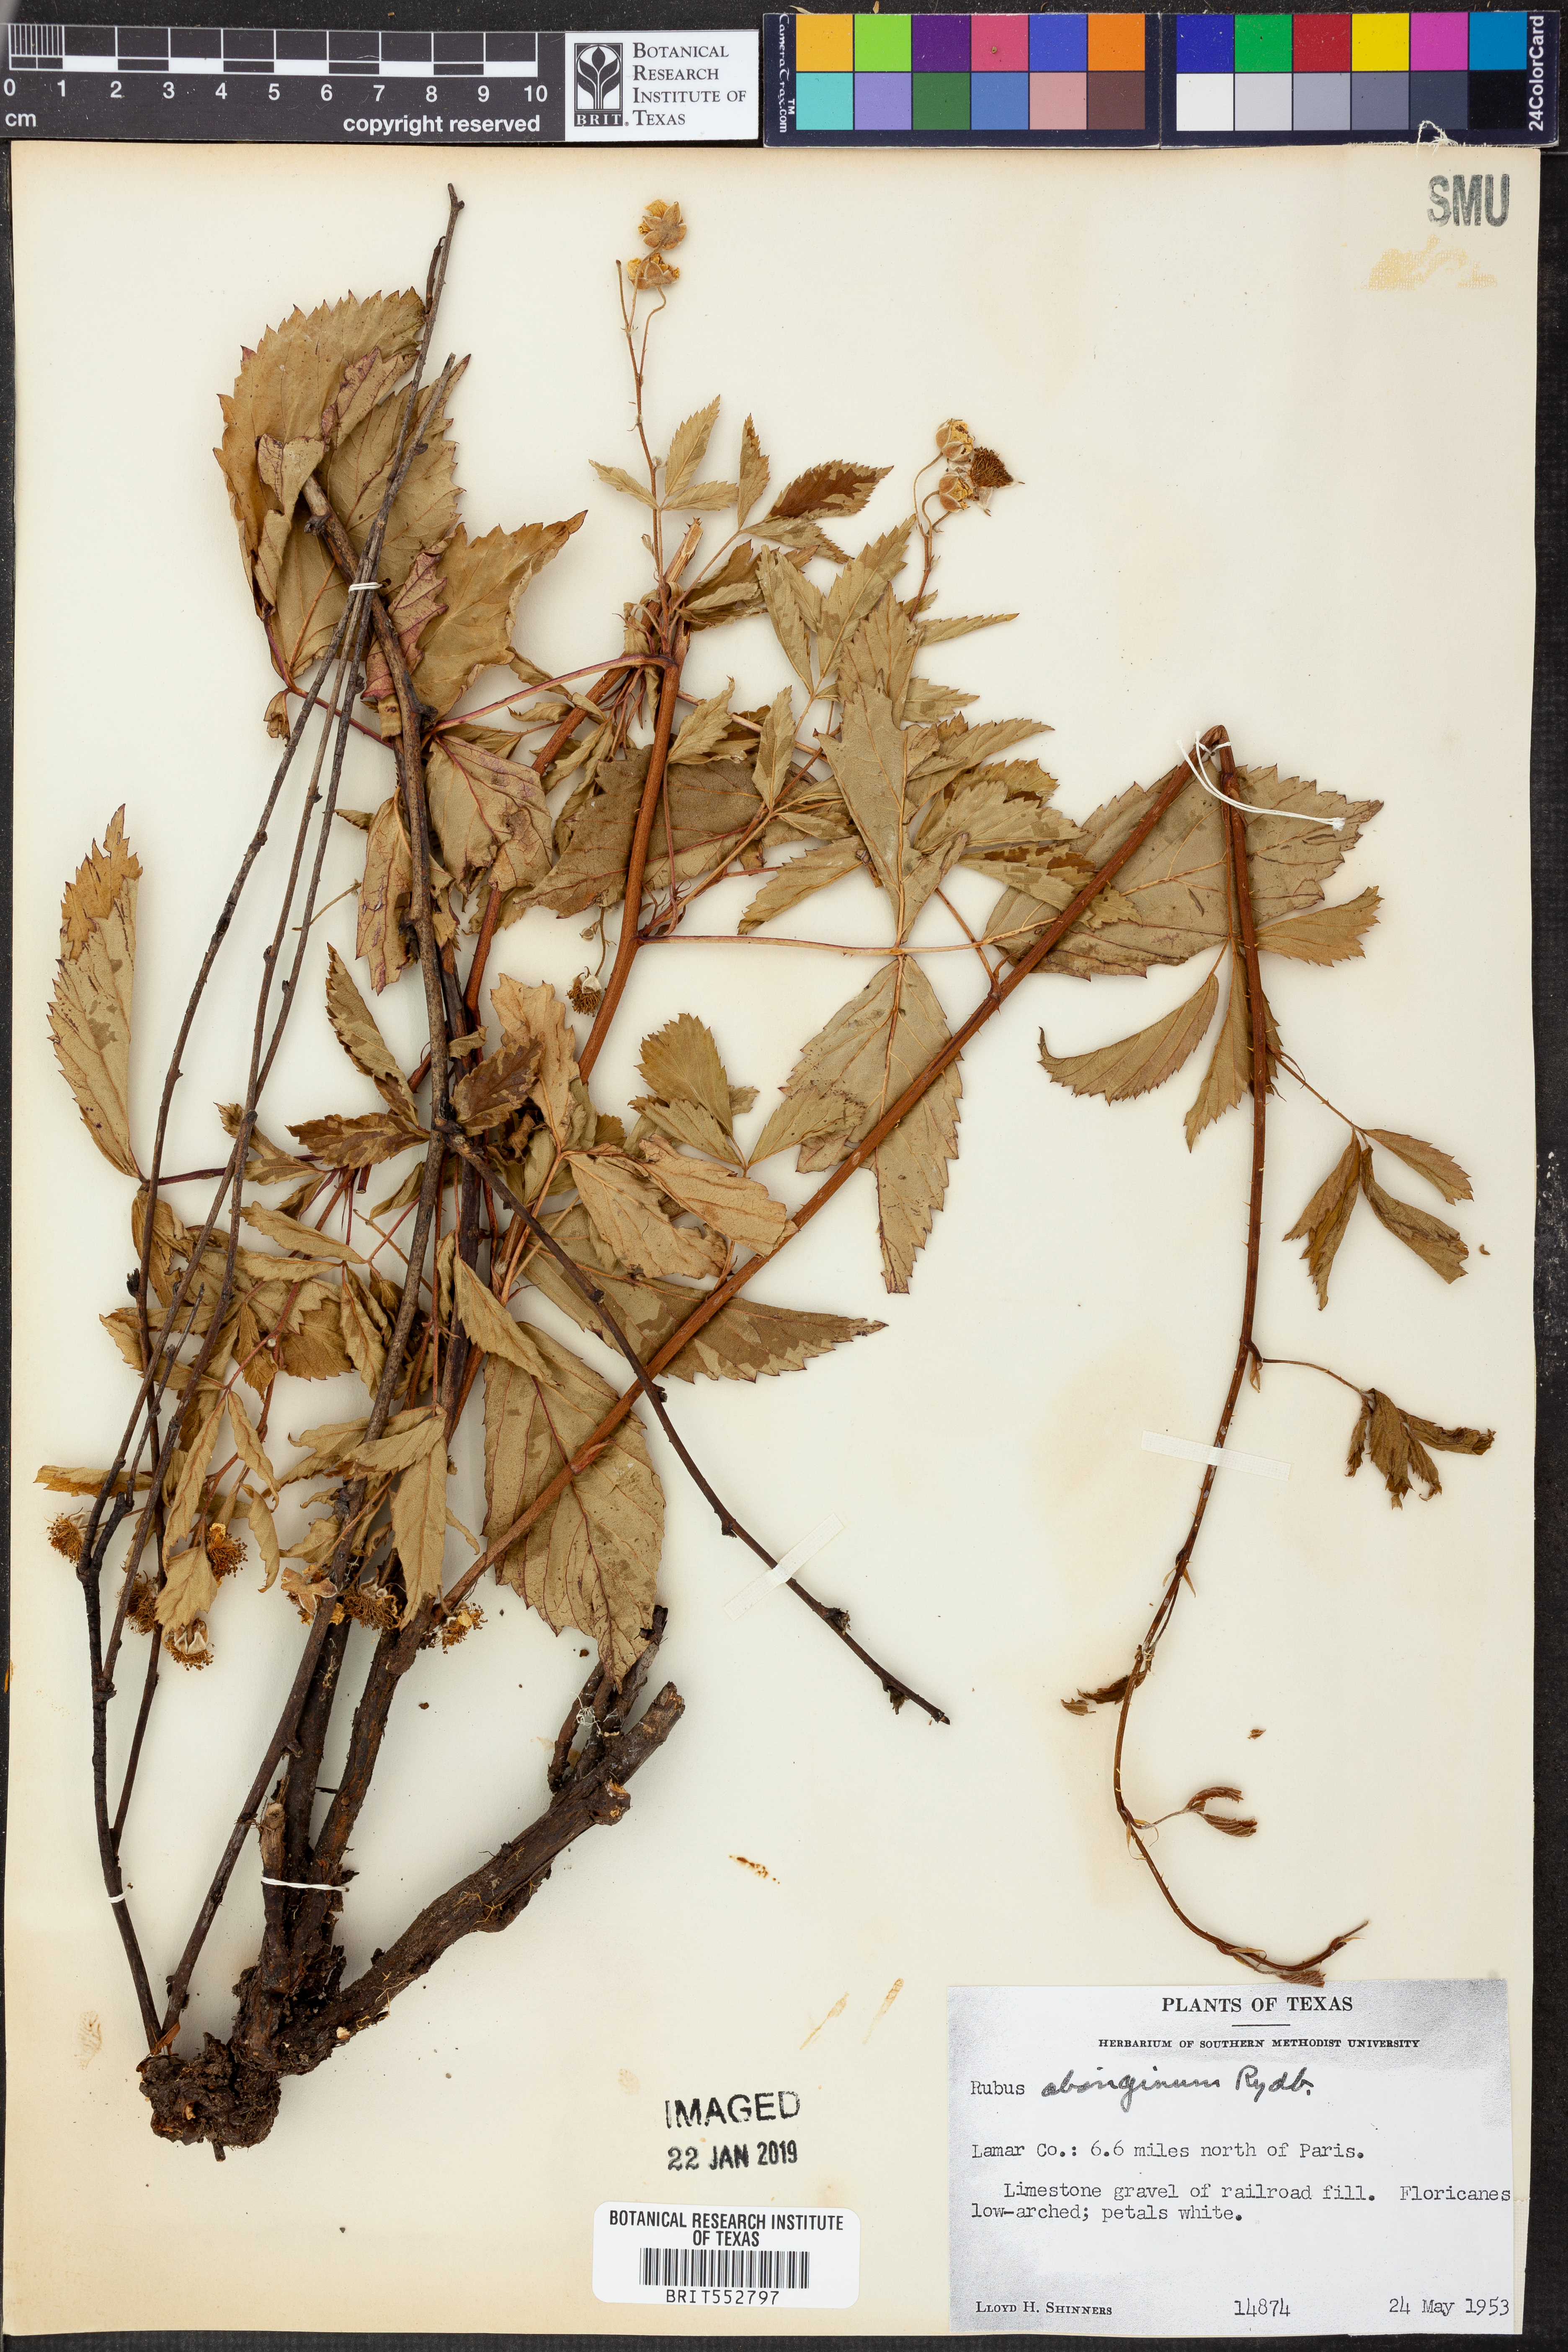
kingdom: Plantae
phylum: Tracheophyta
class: Magnoliopsida
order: Rosales
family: Rosaceae
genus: Rubus
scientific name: Rubus aboriginum
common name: Mayes dewberry
